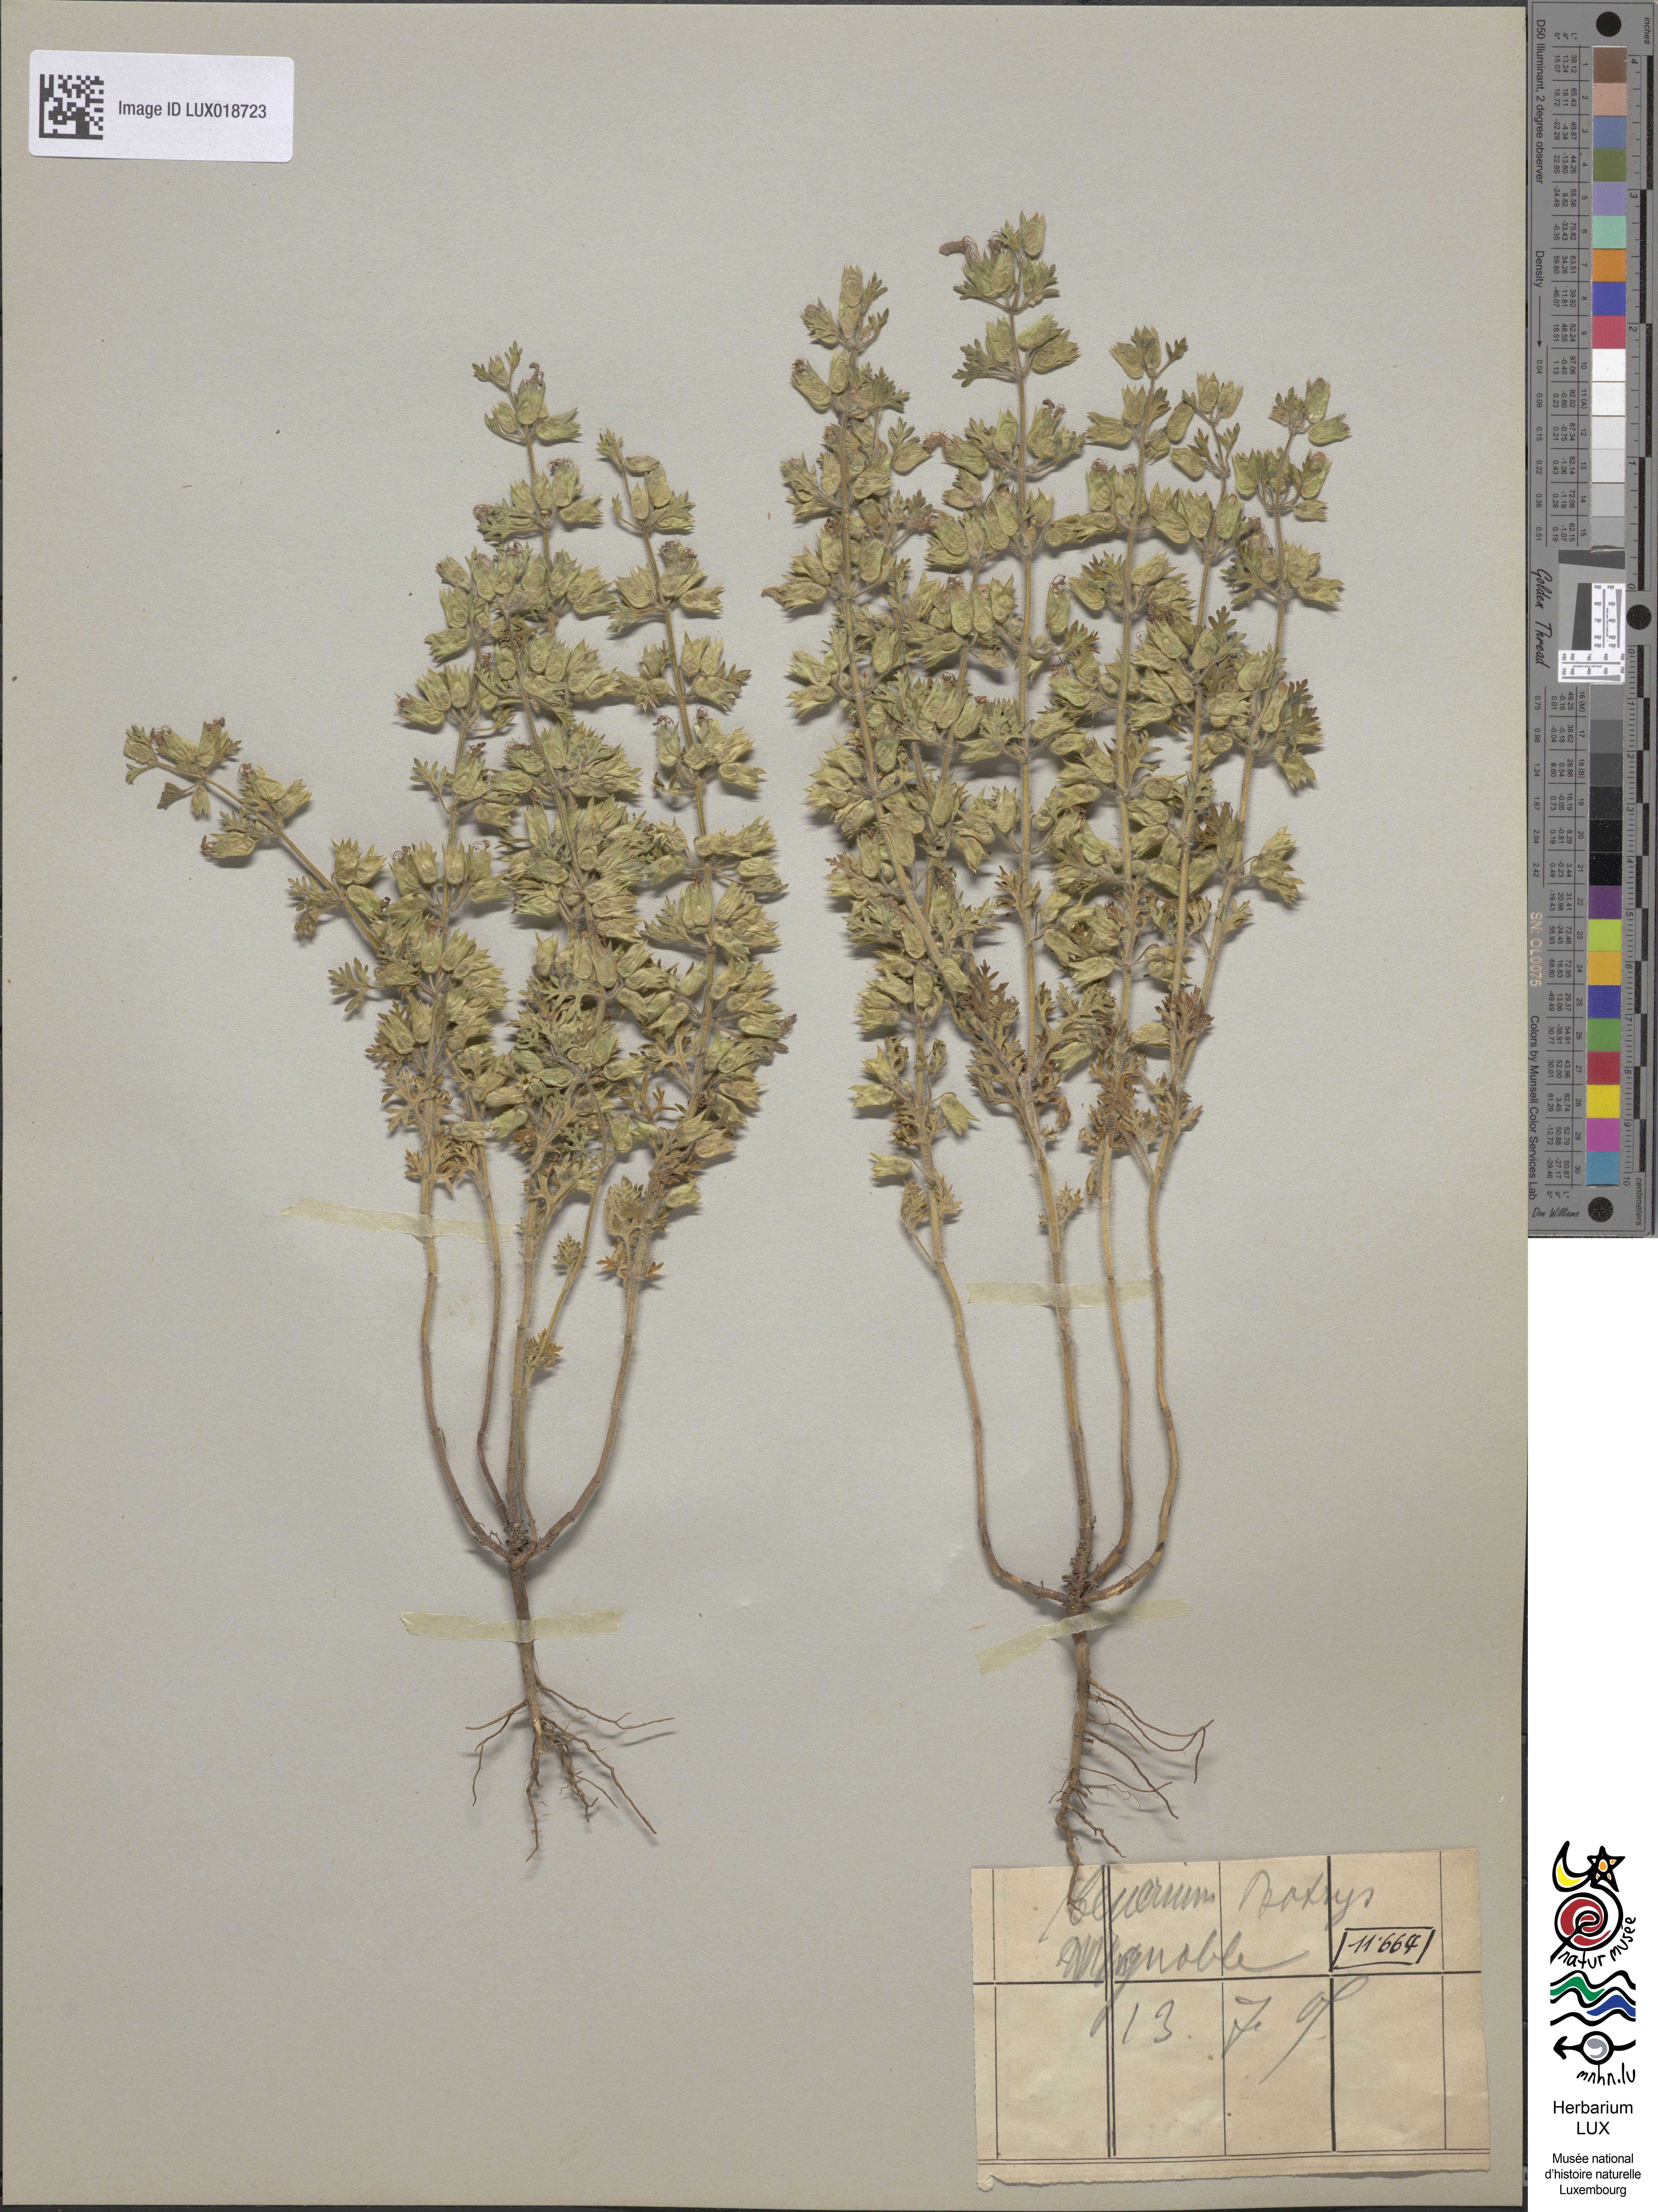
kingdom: Plantae
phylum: Tracheophyta
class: Magnoliopsida
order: Lamiales
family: Lamiaceae
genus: Teucrium
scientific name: Teucrium botrys
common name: Cut-leaved germander
